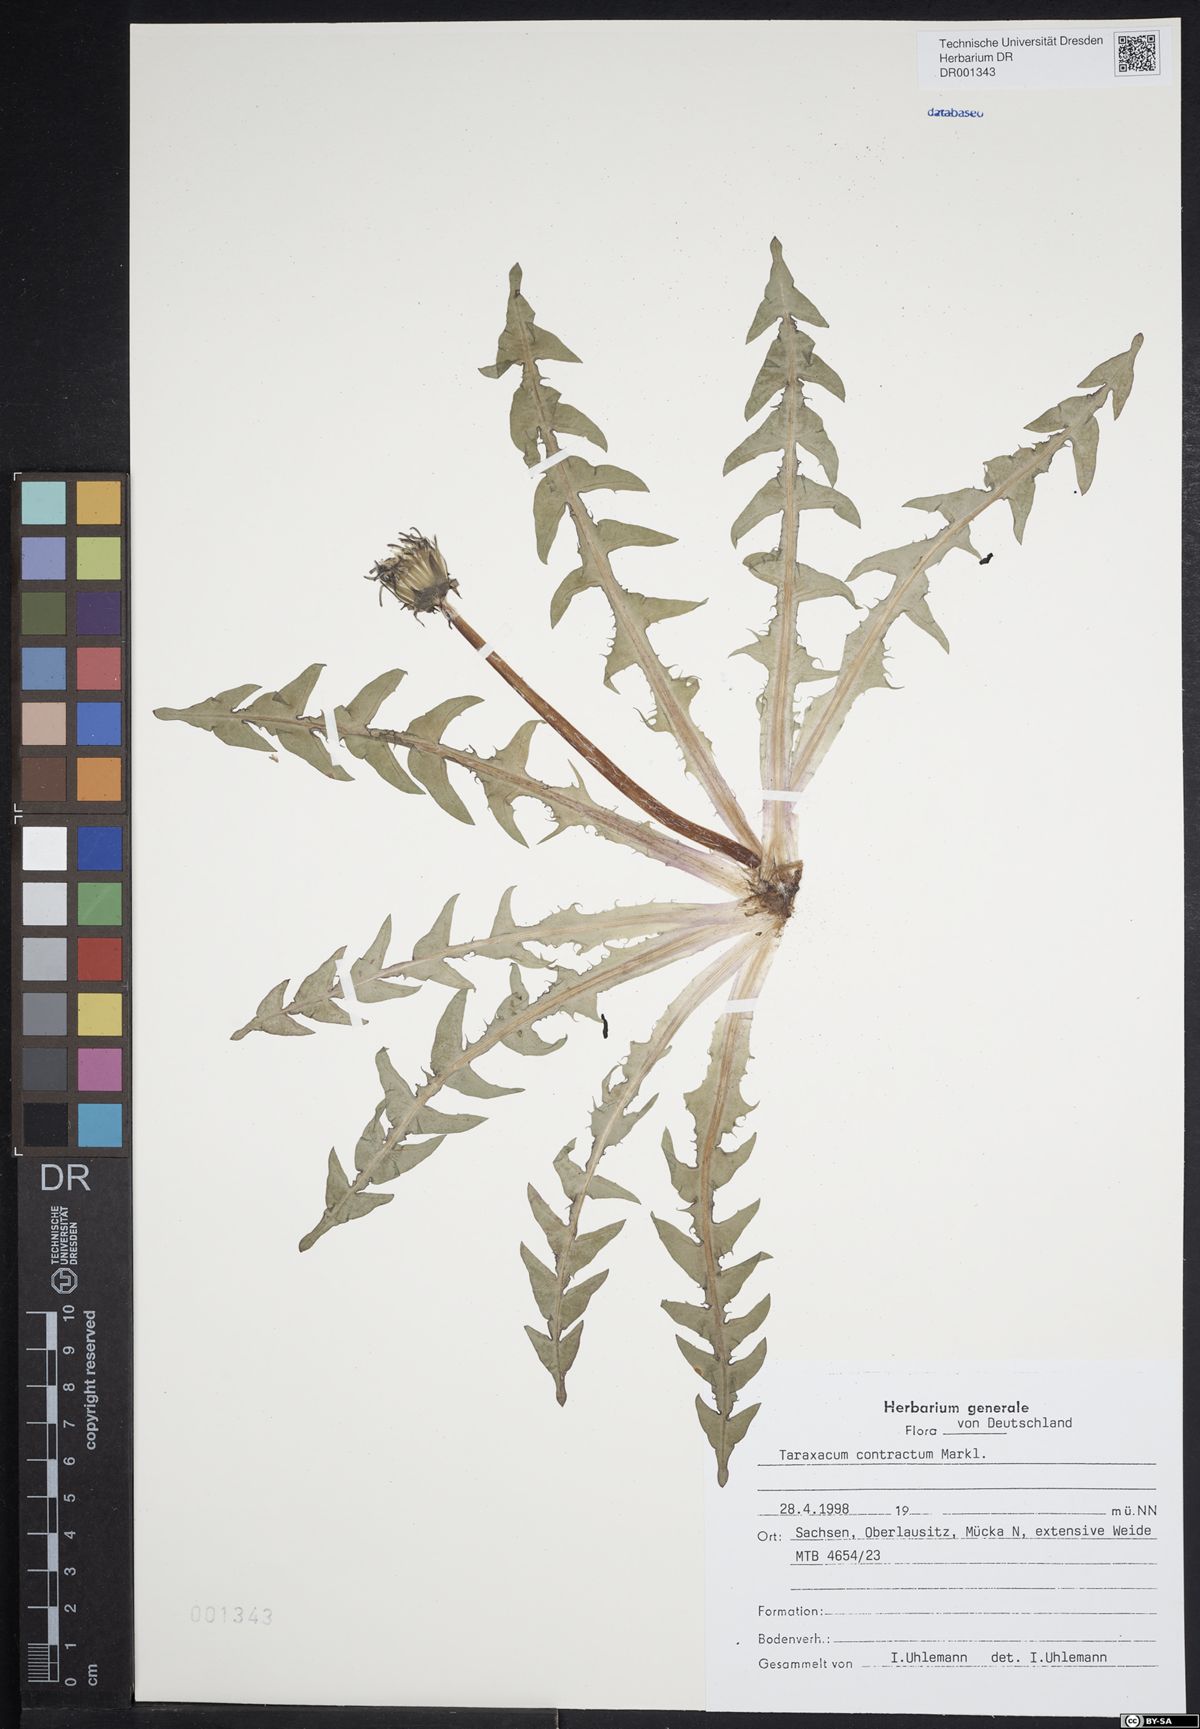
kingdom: Plantae
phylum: Tracheophyta
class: Magnoliopsida
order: Asterales
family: Asteraceae
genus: Taraxacum
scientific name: Taraxacum contractum
